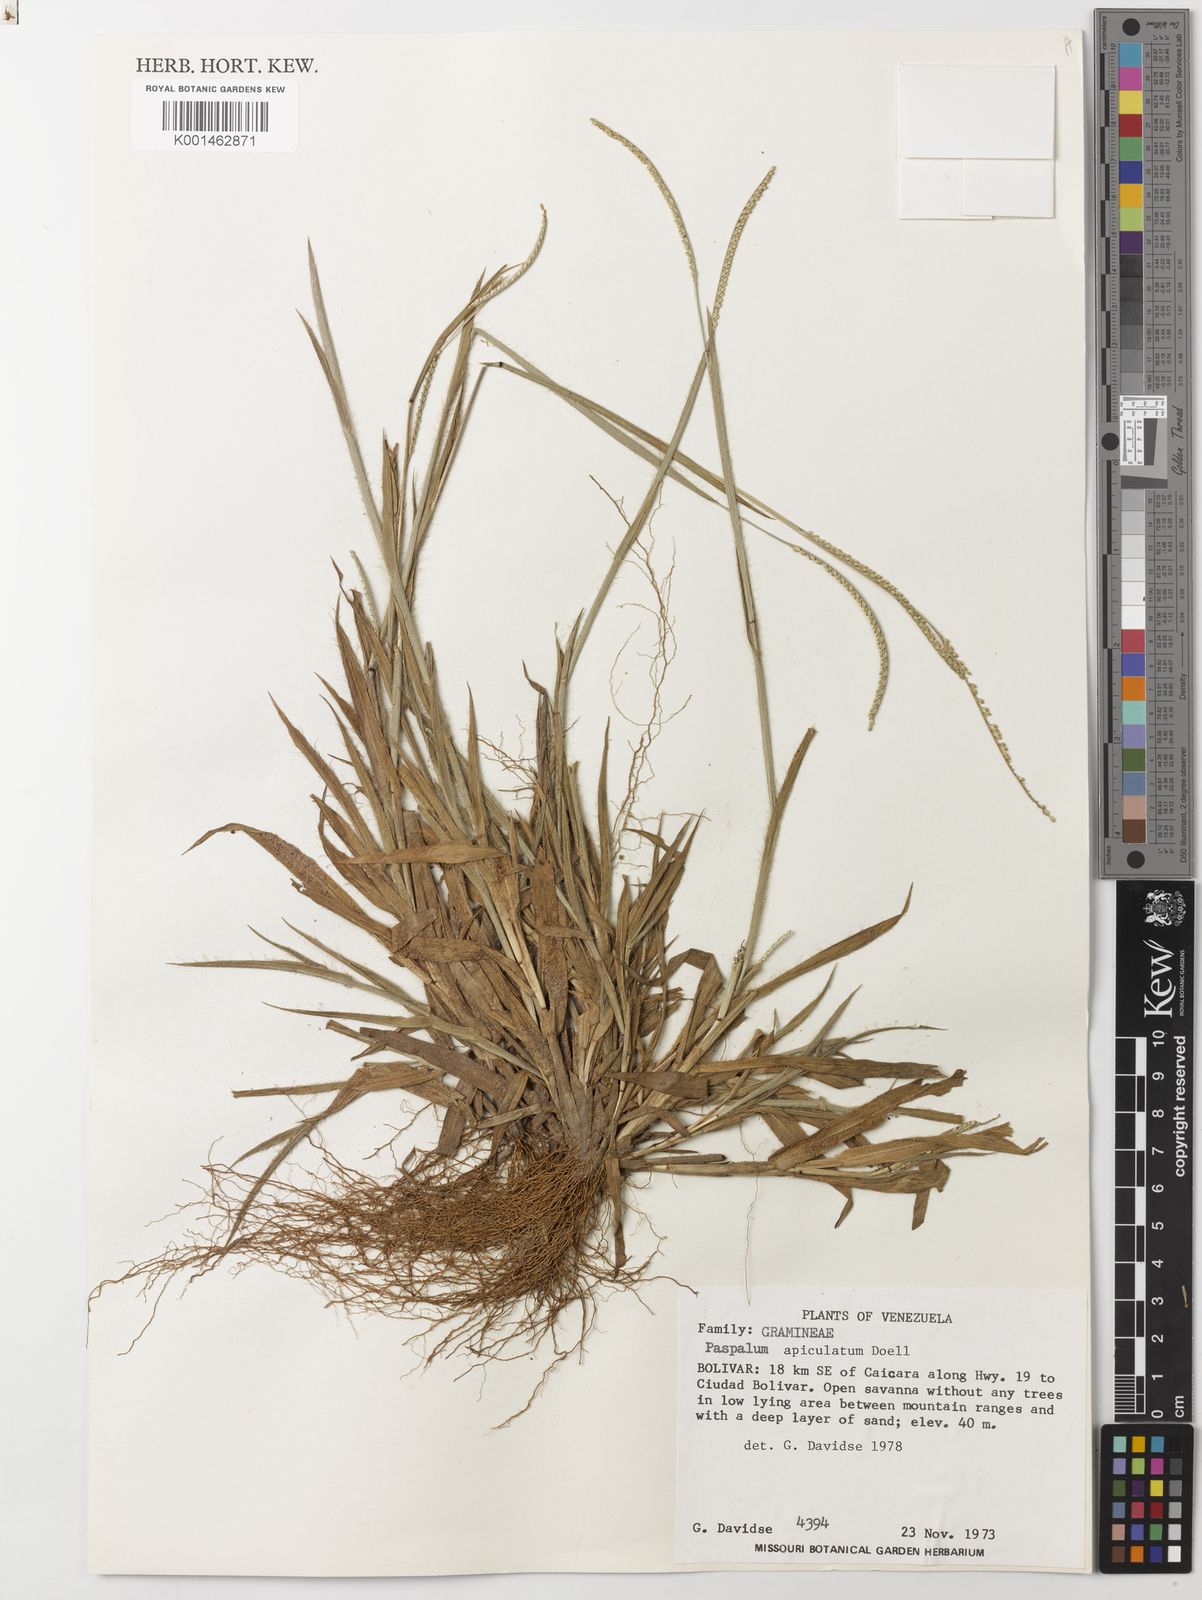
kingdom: Plantae
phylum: Tracheophyta
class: Liliopsida
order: Poales
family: Poaceae
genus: Paspalum
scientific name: Paspalum
